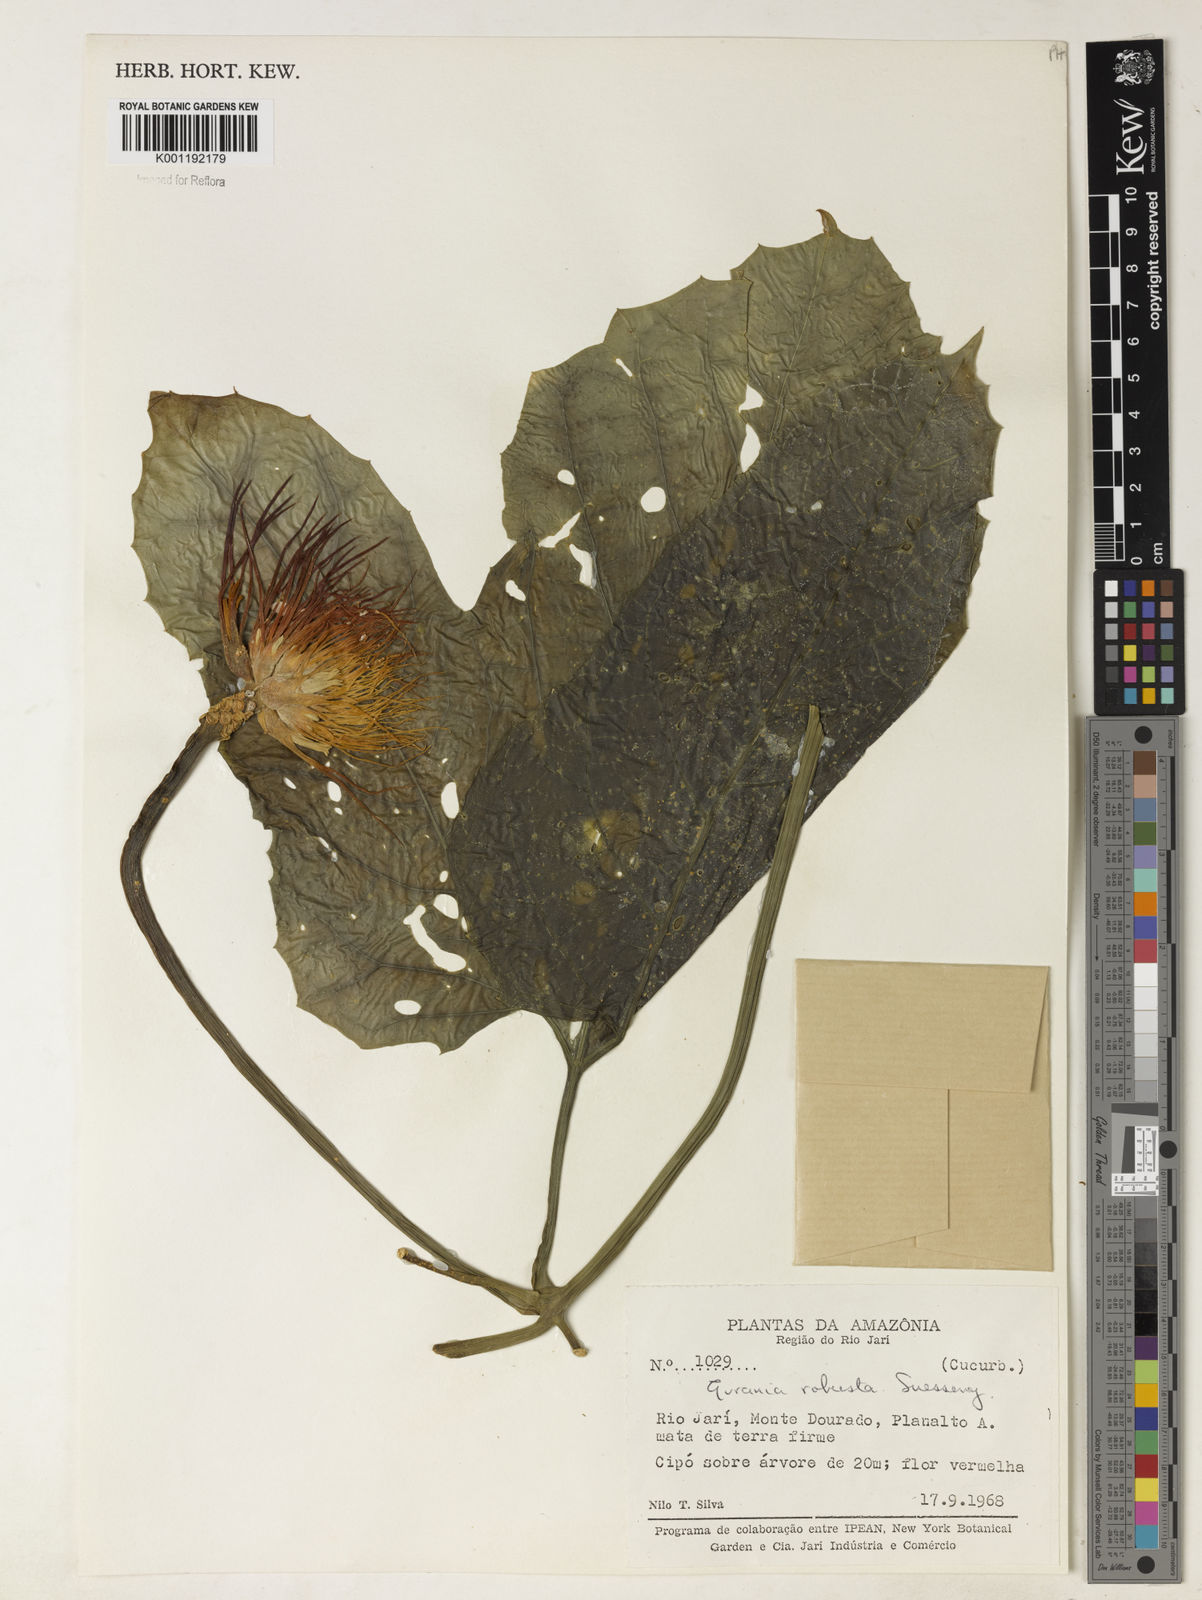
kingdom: Plantae
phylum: Tracheophyta
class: Magnoliopsida
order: Cucurbitales
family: Cucurbitaceae
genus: Gurania
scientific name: Gurania
